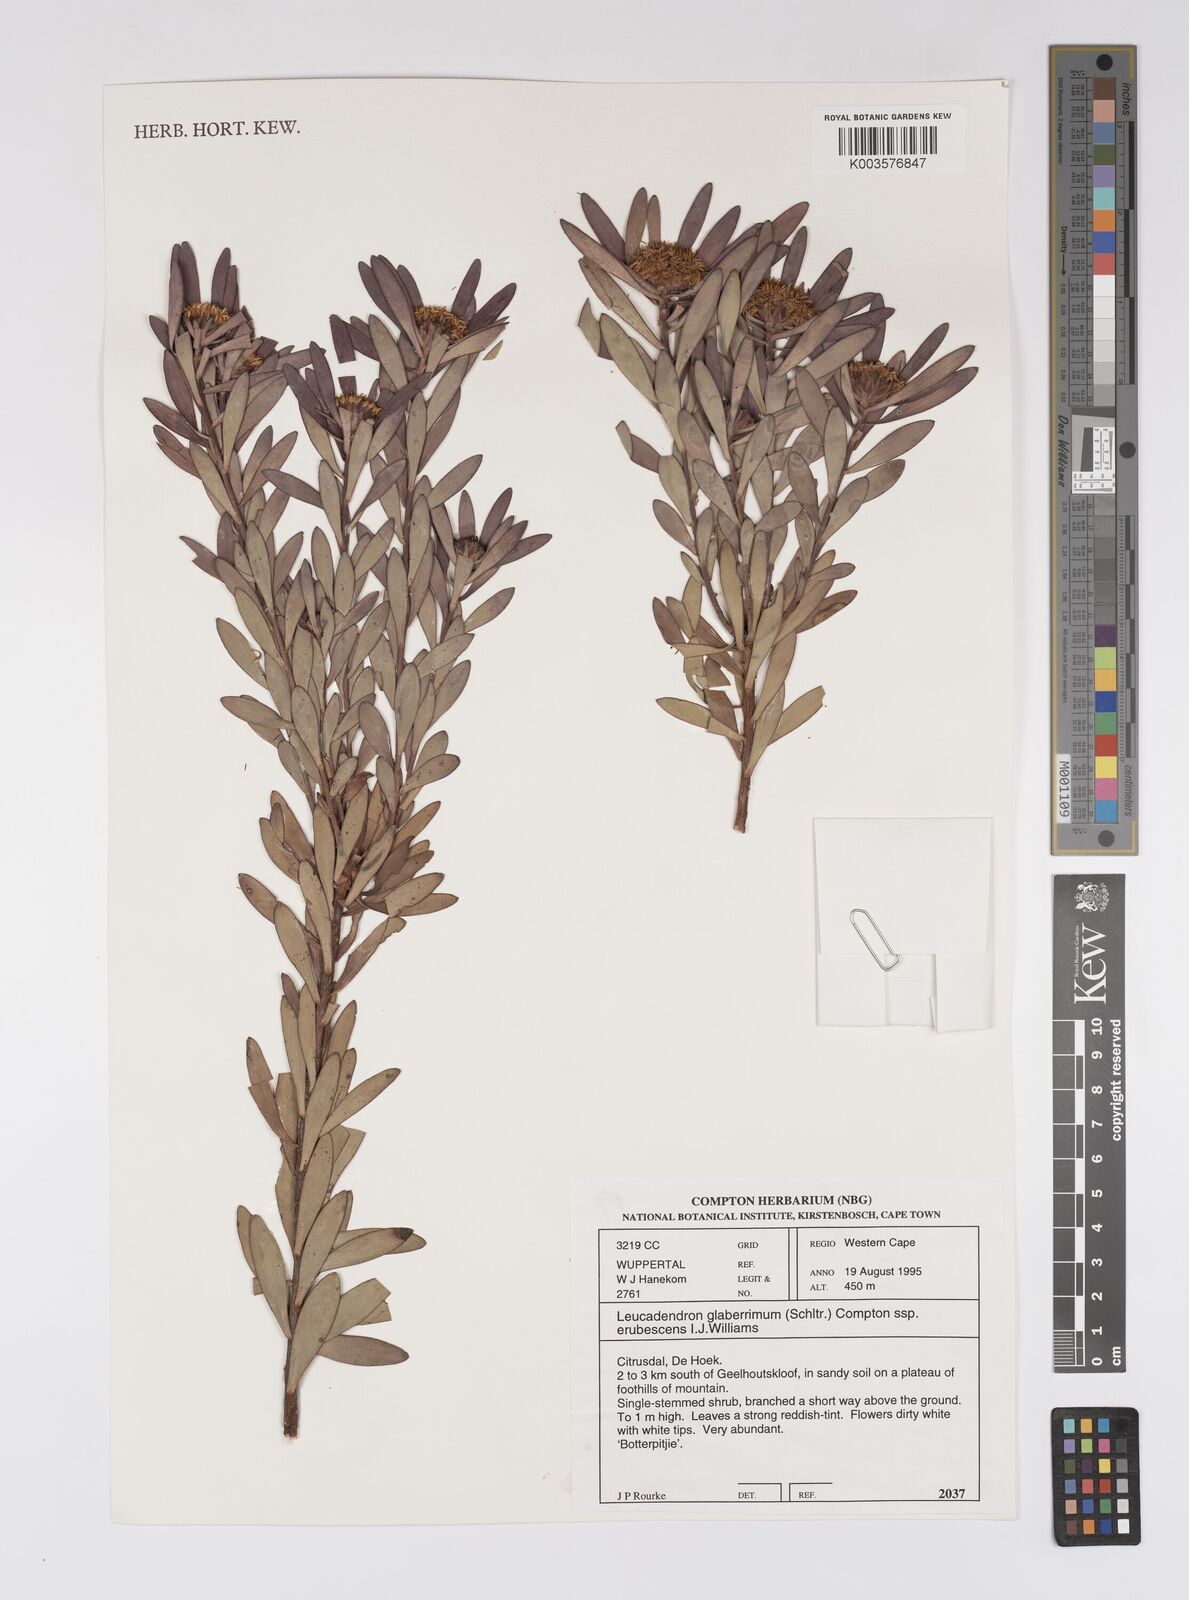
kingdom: Plantae
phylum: Tracheophyta
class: Magnoliopsida
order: Proteales
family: Proteaceae
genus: Leucadendron
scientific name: Leucadendron glaberrimum
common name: Common oily conebush
